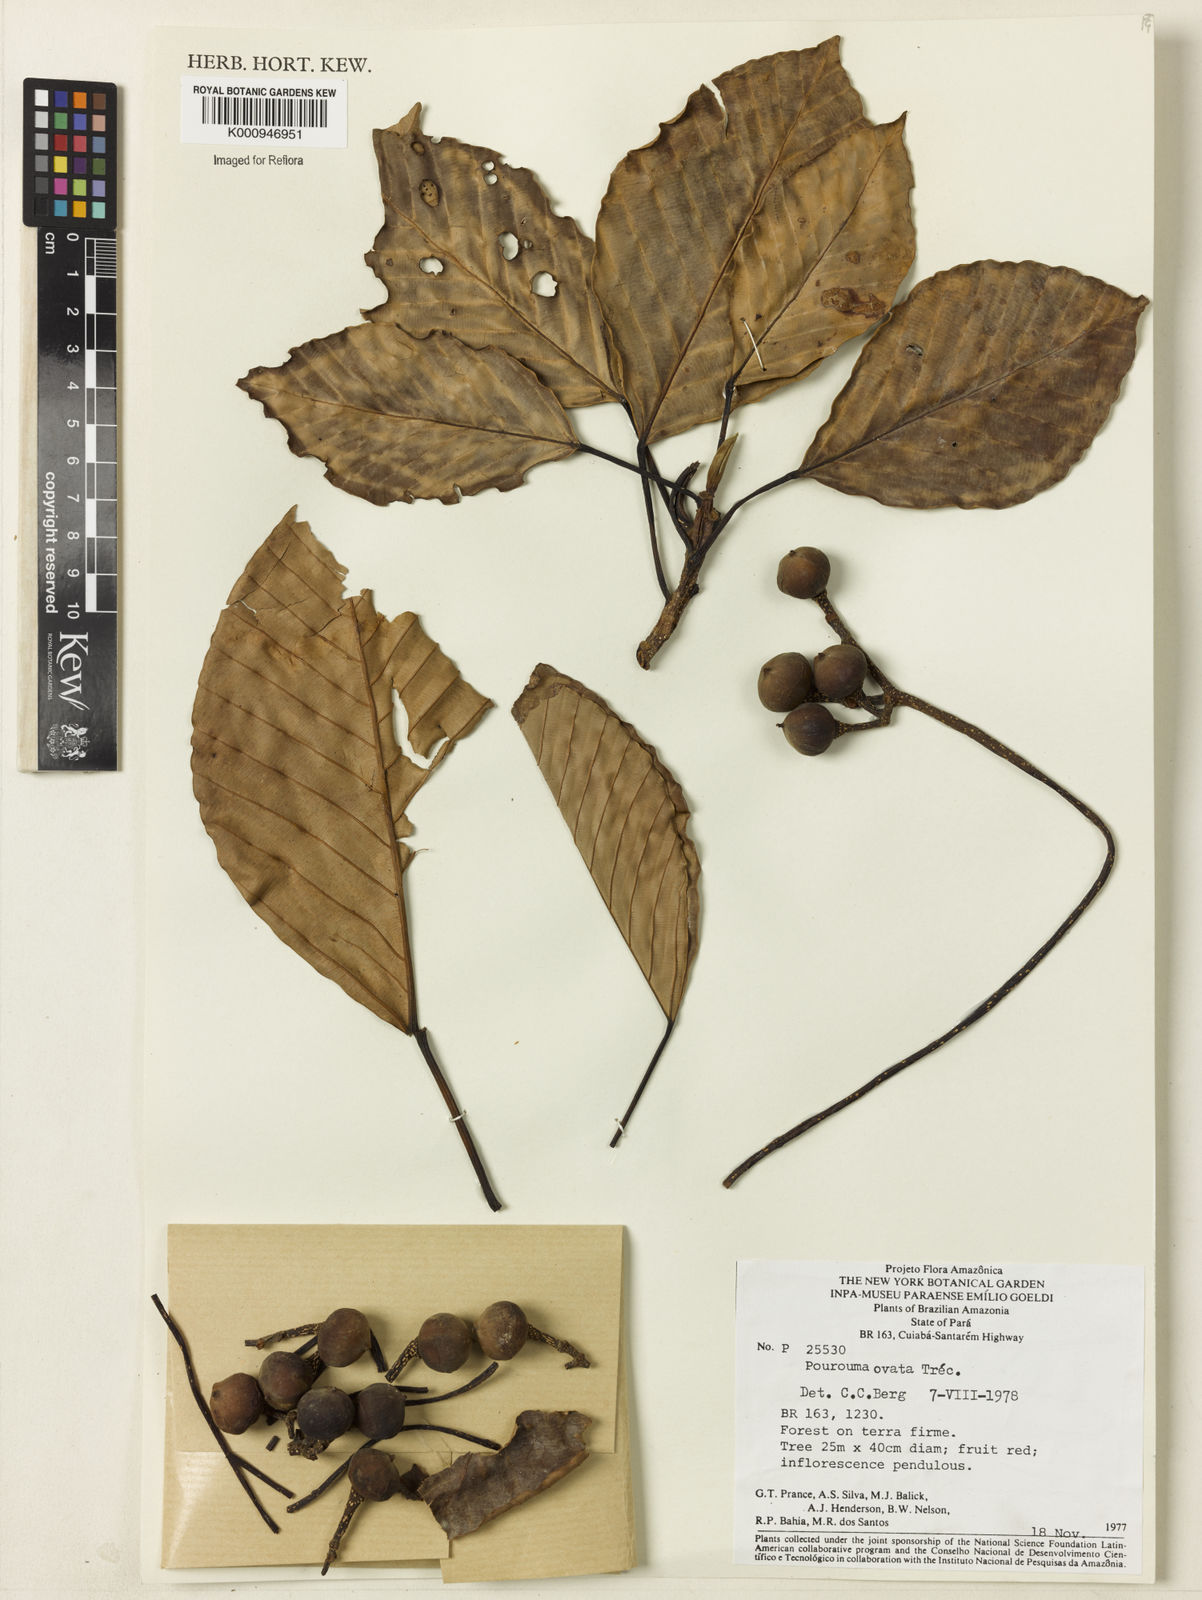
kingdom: Plantae
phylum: Tracheophyta
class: Magnoliopsida
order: Rosales
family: Urticaceae
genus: Pourouma
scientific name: Pourouma
